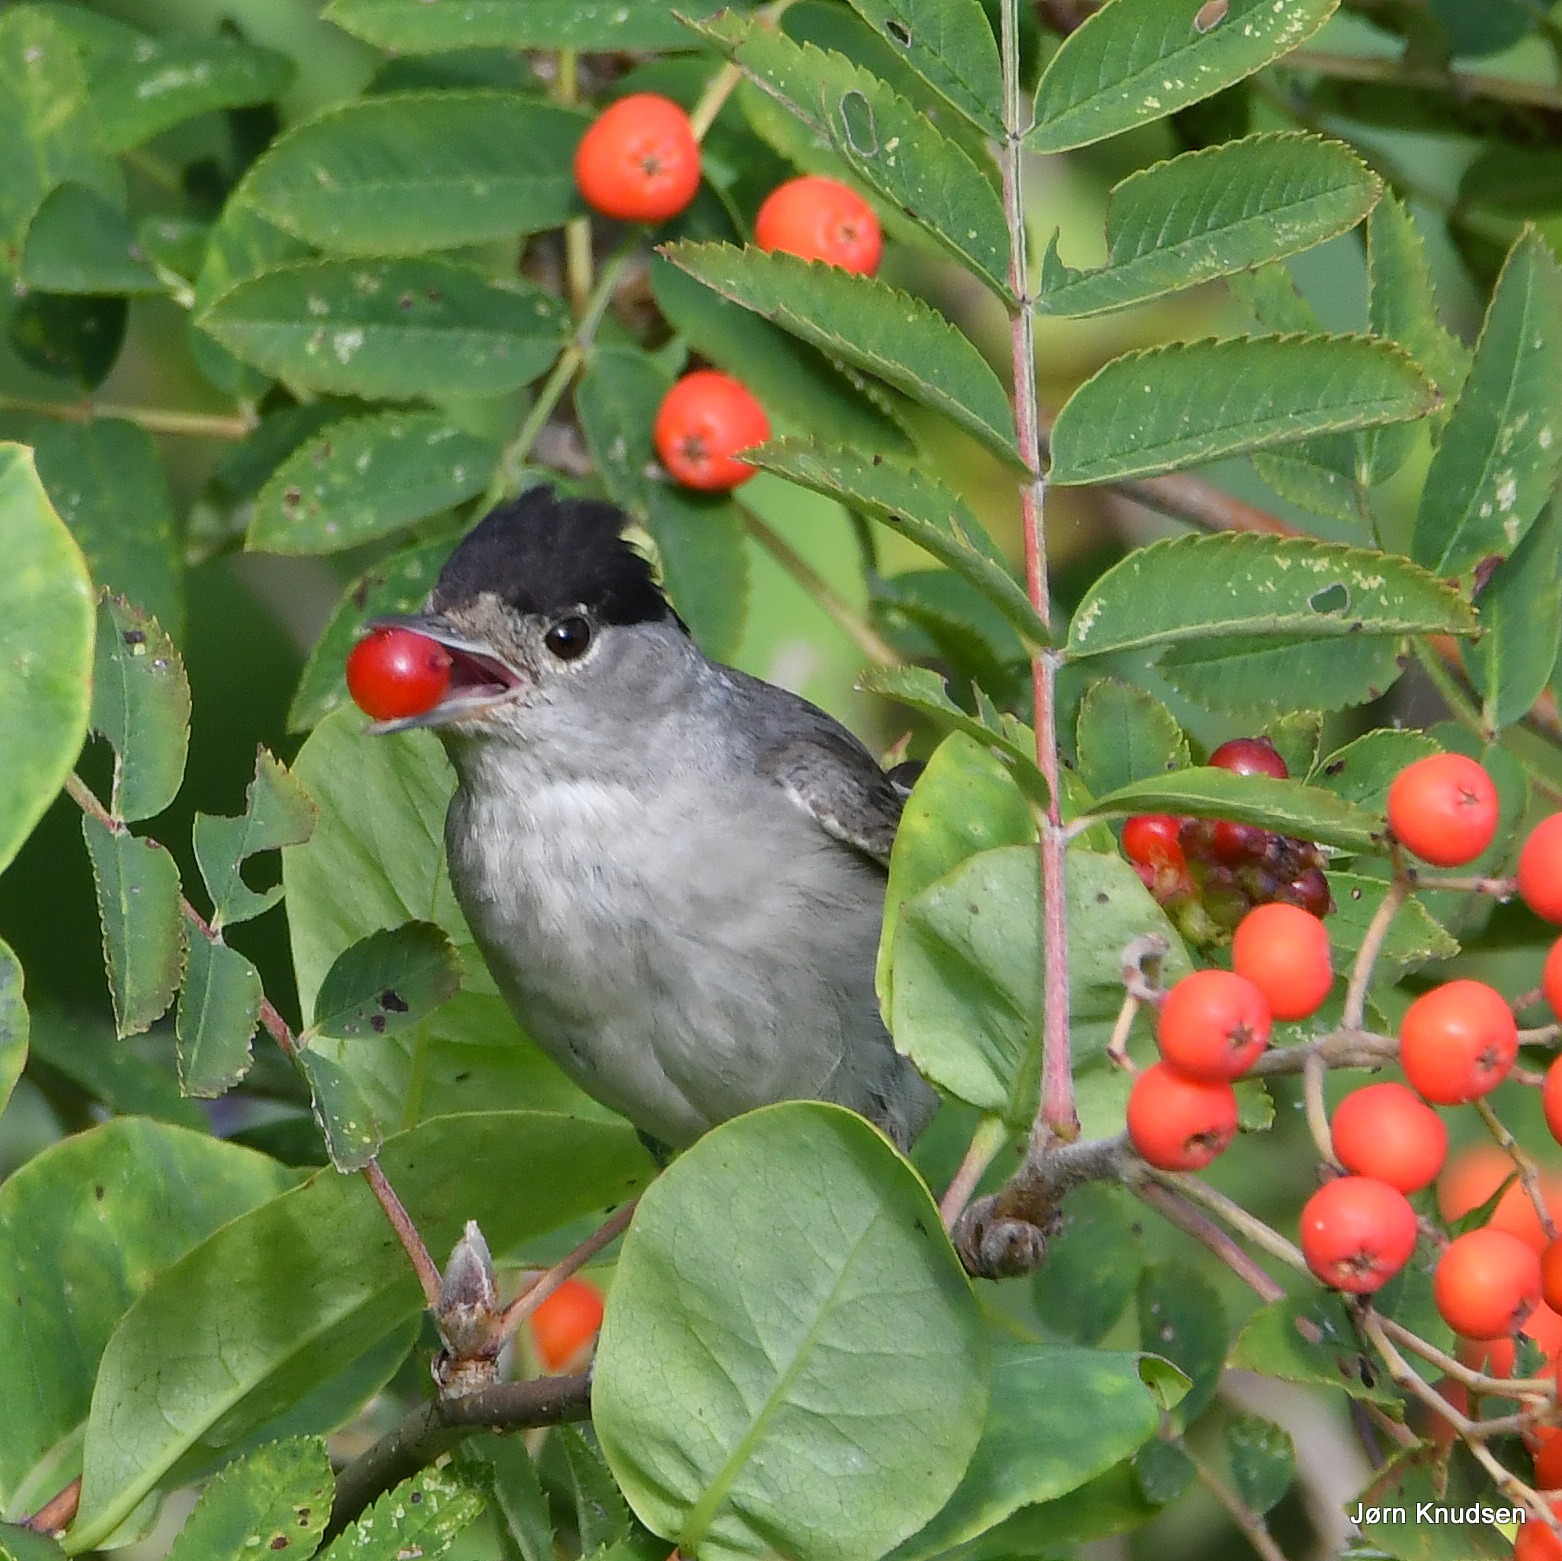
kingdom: Animalia
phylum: Chordata
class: Aves
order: Passeriformes
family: Sylviidae
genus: Sylvia
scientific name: Sylvia atricapilla
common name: Munk
